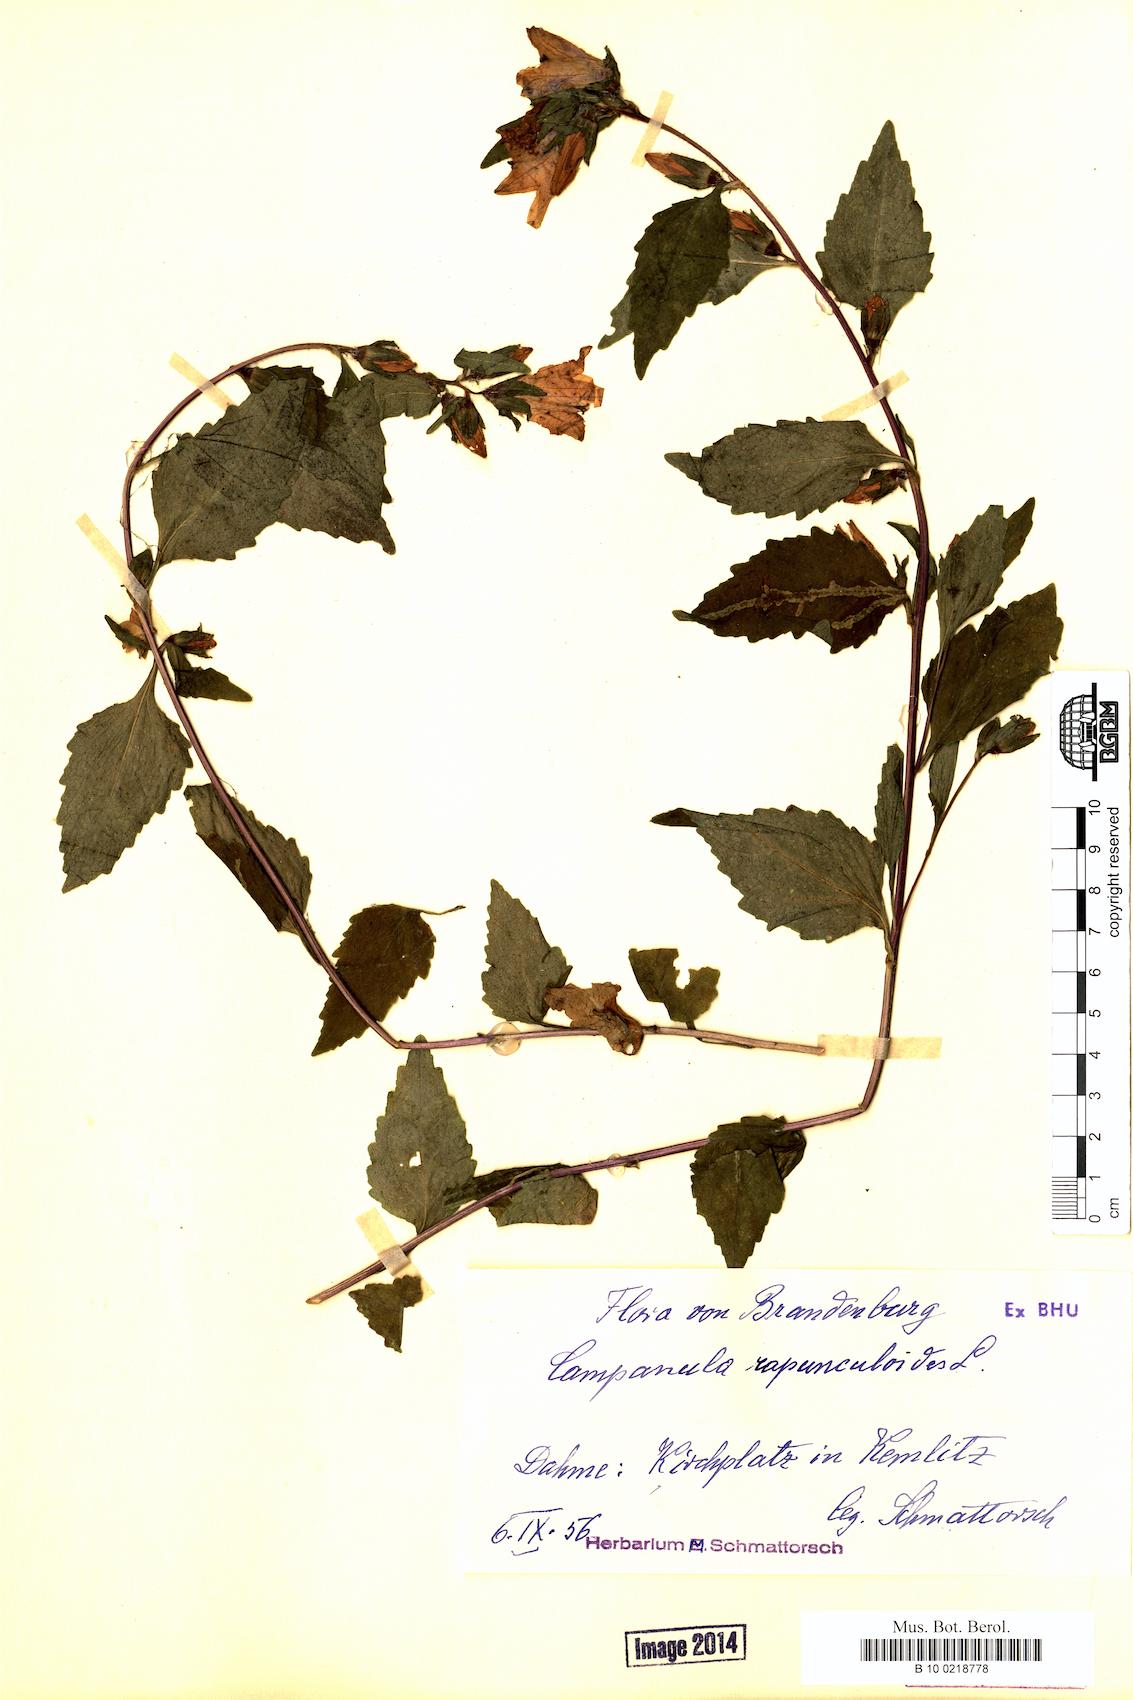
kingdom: Plantae
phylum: Tracheophyta
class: Magnoliopsida
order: Asterales
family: Campanulaceae
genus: Campanula
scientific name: Campanula rapunculoides
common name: Creeping bellflower
